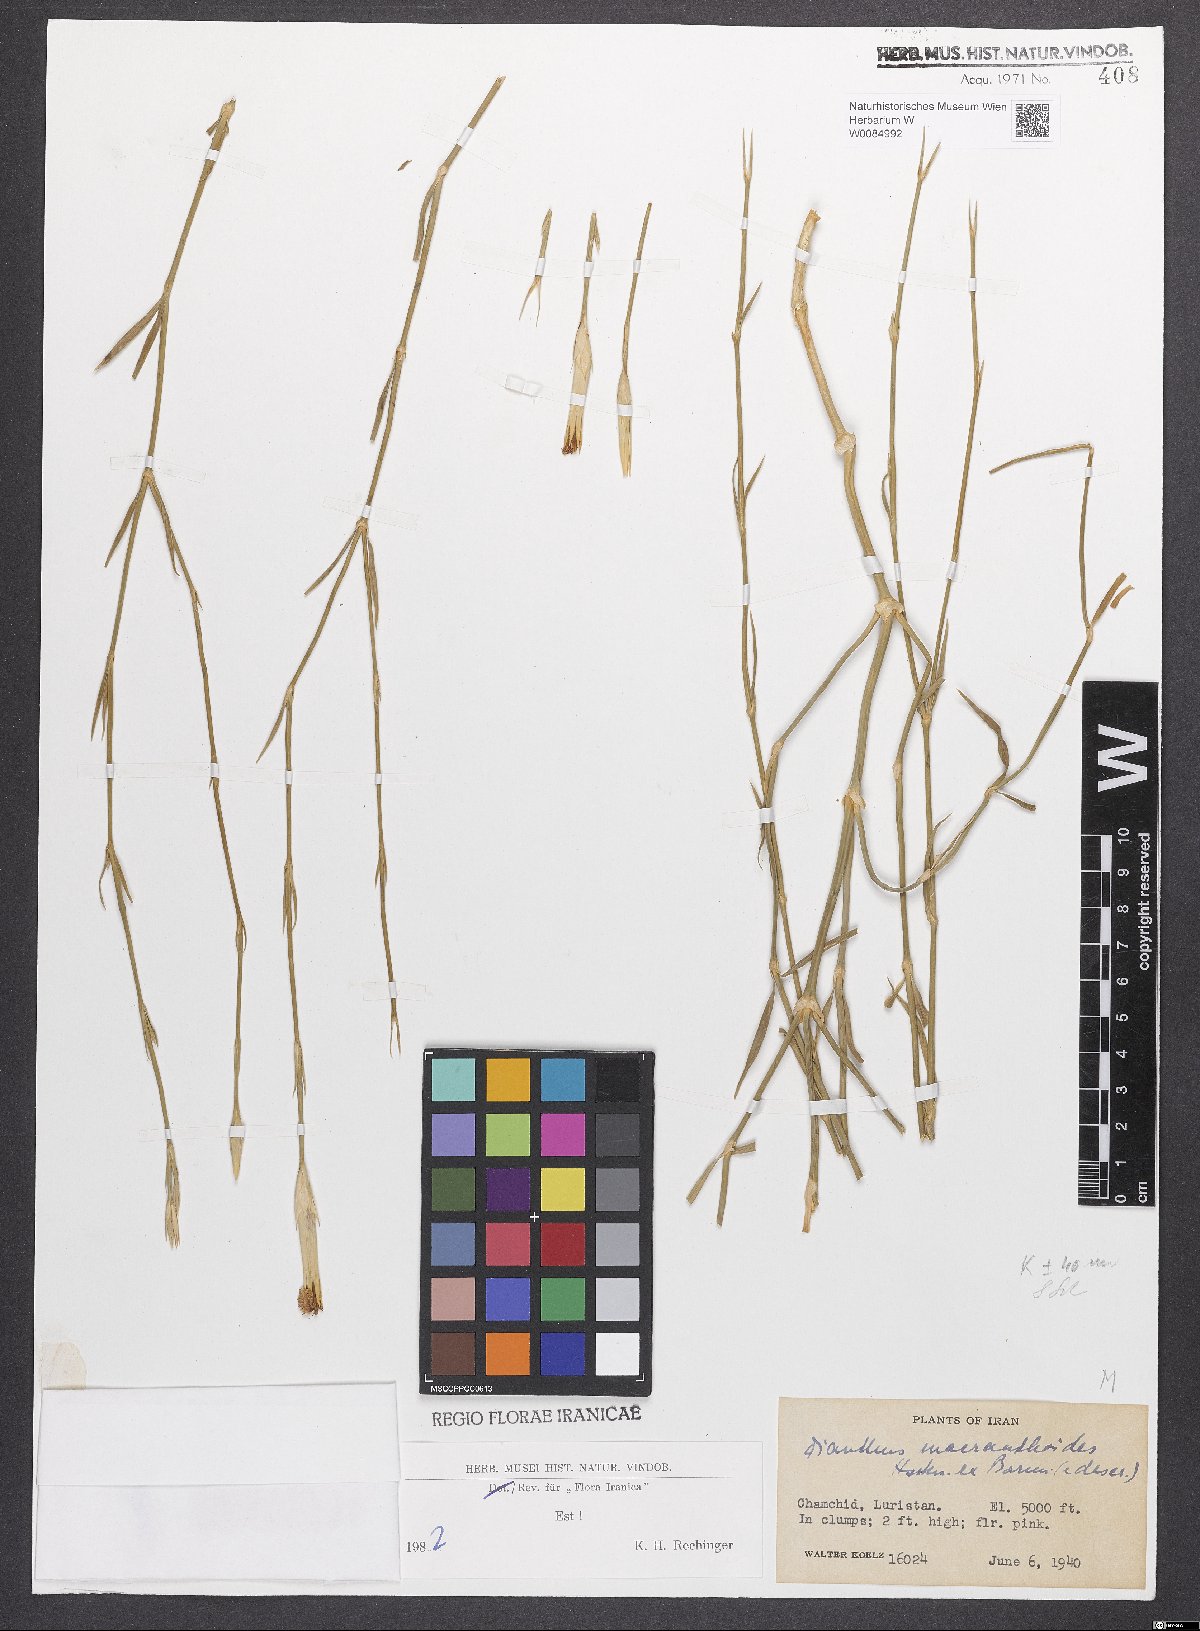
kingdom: Plantae
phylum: Tracheophyta
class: Magnoliopsida
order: Caryophyllales
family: Caryophyllaceae
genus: Dianthus
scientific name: Dianthus macranthoides
